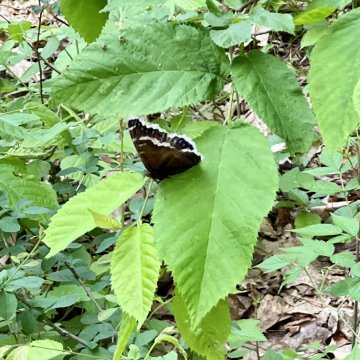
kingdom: Animalia
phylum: Arthropoda
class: Insecta
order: Lepidoptera
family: Nymphalidae
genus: Nymphalis
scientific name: Nymphalis antiopa
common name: Mourning Cloak
